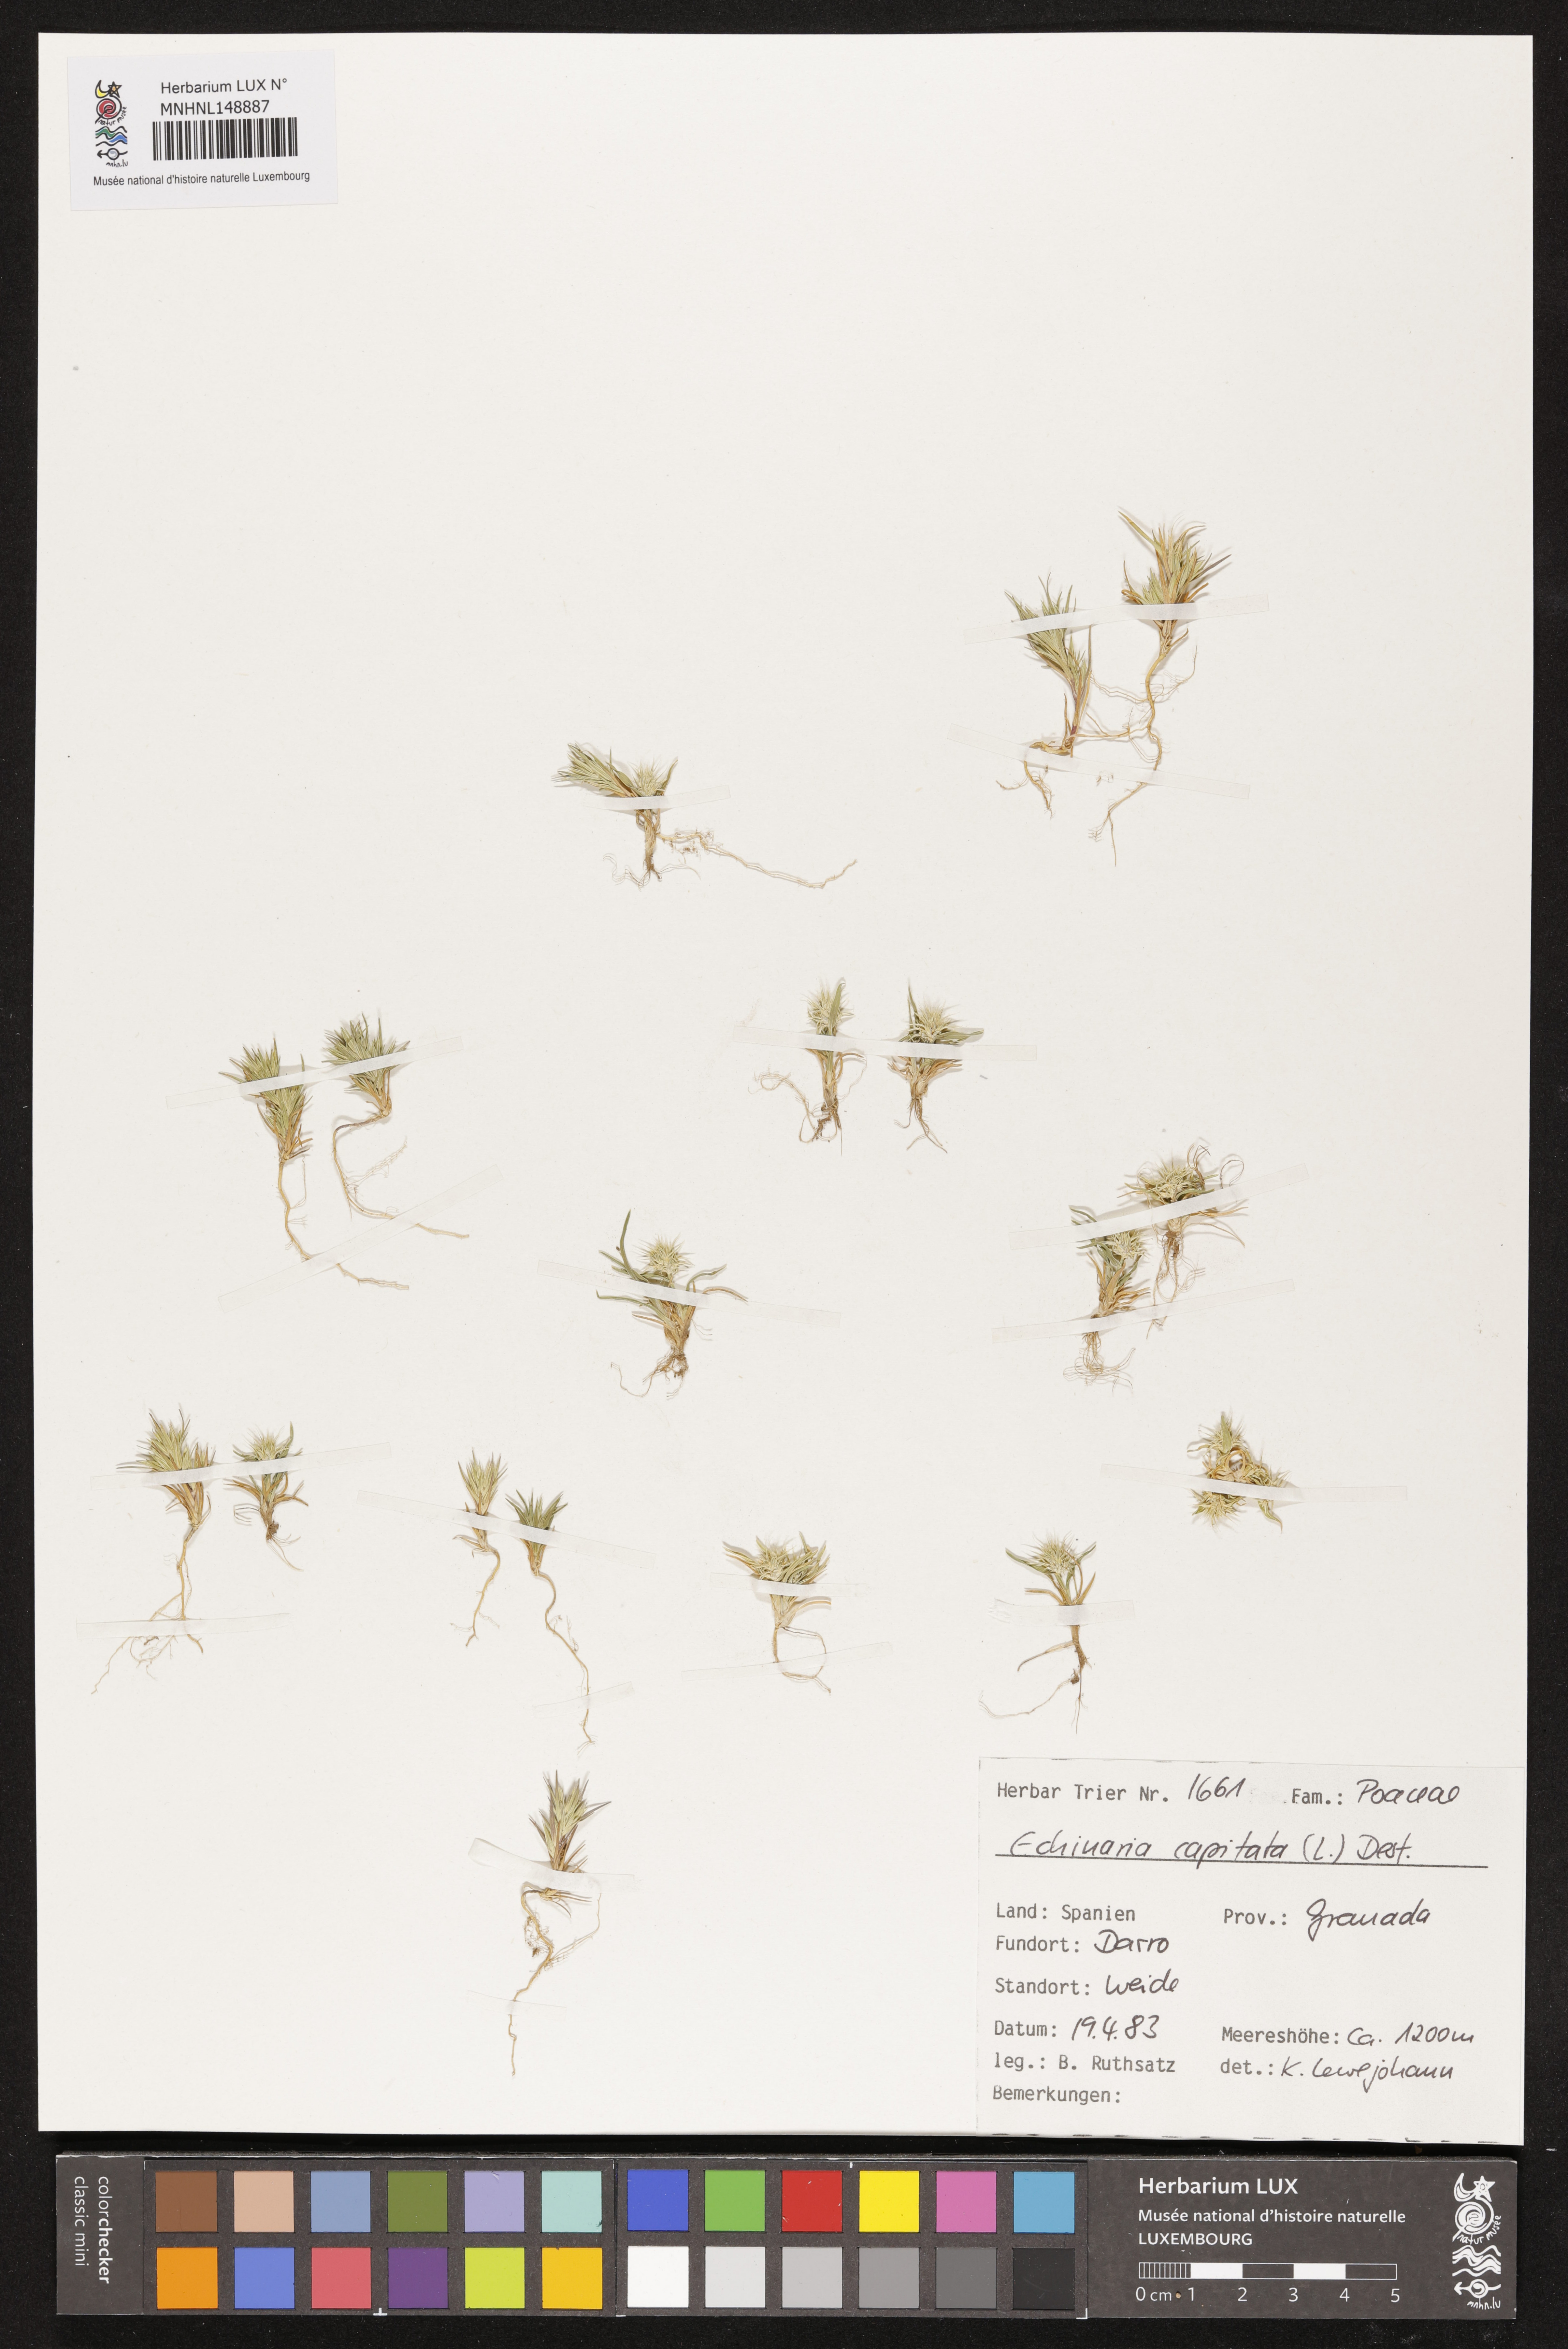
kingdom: Plantae
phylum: Tracheophyta
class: Liliopsida
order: Poales
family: Poaceae
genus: Echinaria
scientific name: Echinaria capitata
